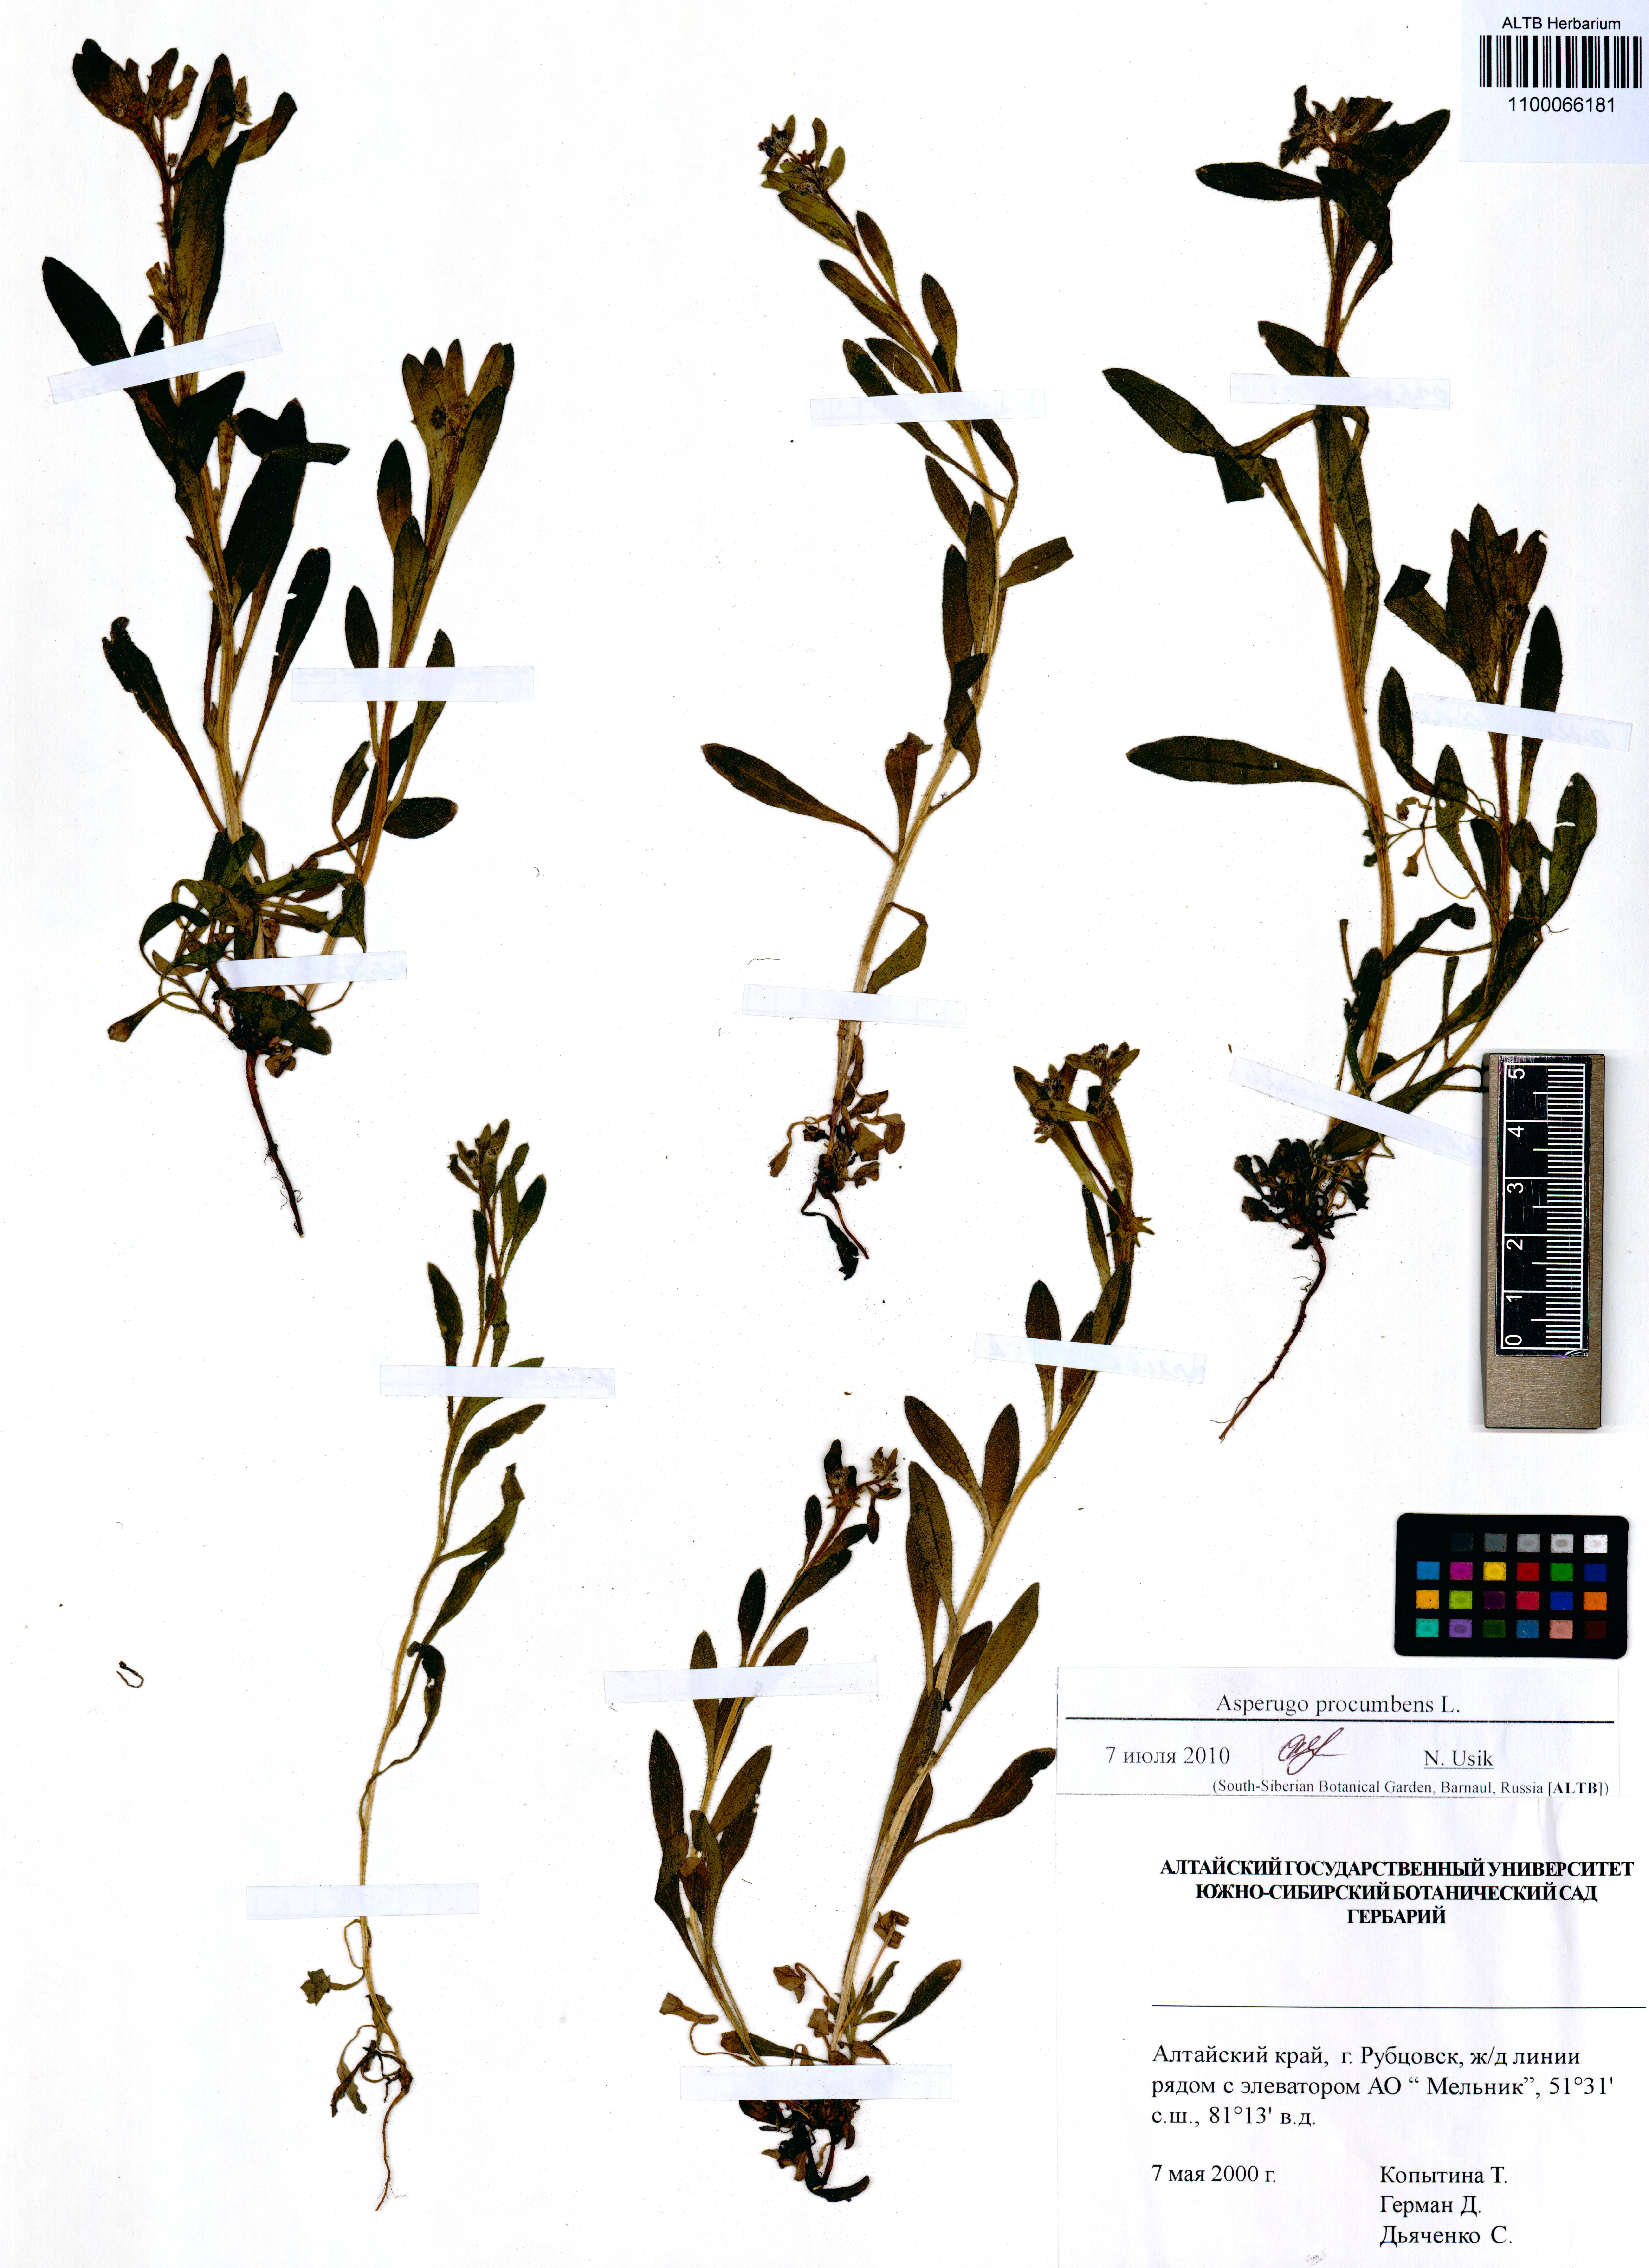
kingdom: Plantae
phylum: Tracheophyta
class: Magnoliopsida
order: Boraginales
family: Boraginaceae
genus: Asperugo
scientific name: Asperugo procumbens
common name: Madwort
